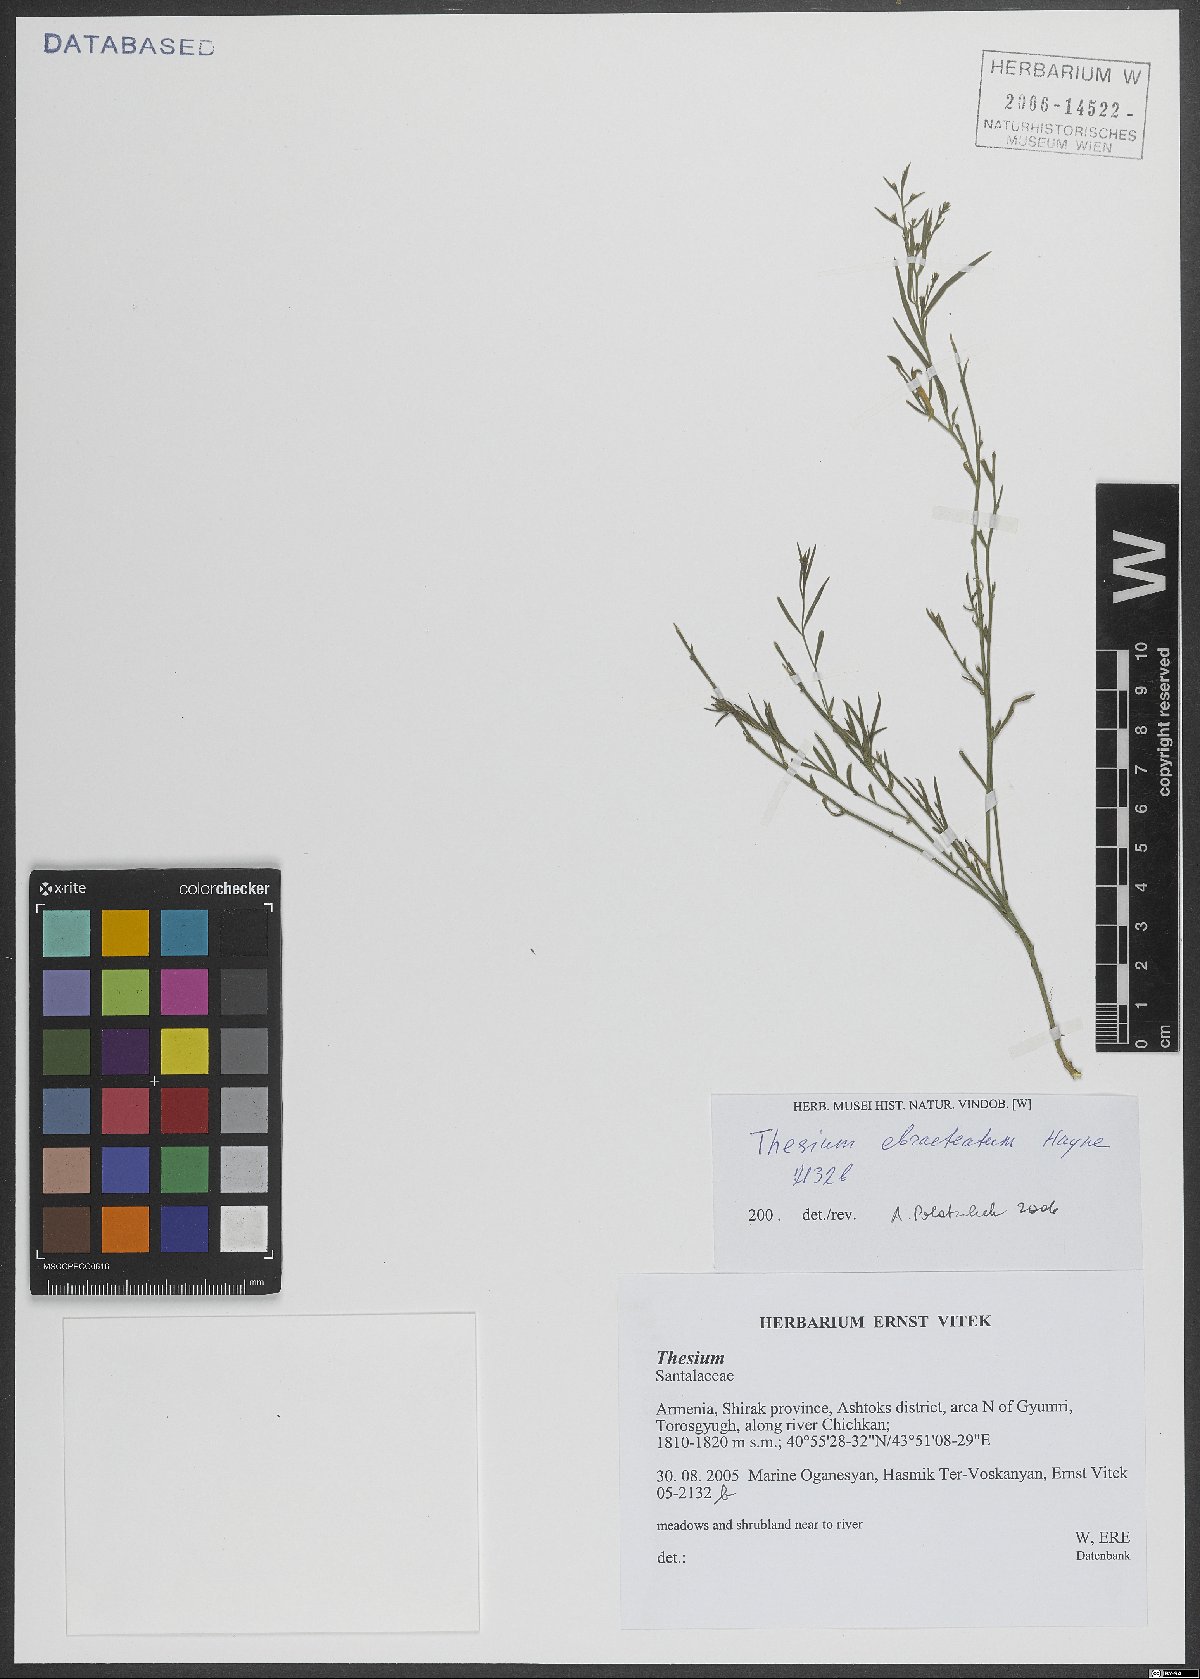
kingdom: Plantae
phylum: Tracheophyta
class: Magnoliopsida
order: Santalales
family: Thesiaceae
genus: Thesium
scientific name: Thesium ebracteatum
